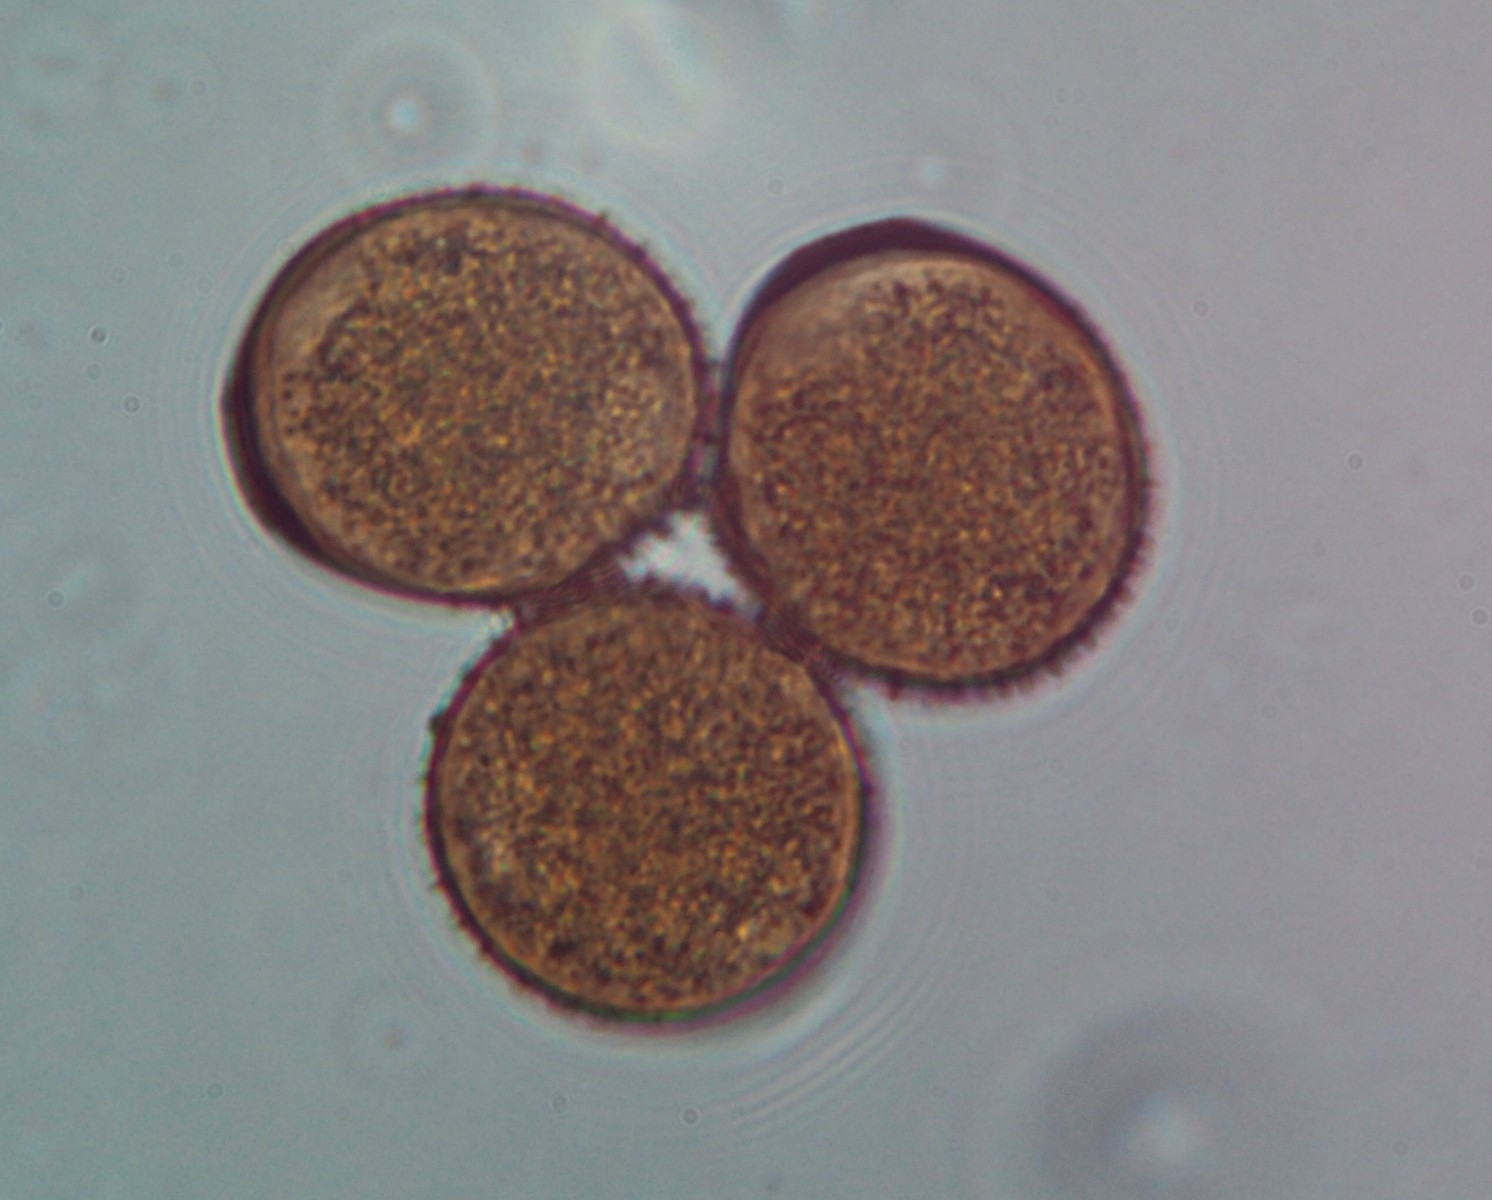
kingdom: Fungi
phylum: Basidiomycota
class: Pucciniomycetes
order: Pucciniales
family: Pucciniaceae
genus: Puccinia
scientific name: Puccinia suaveolens
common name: tidsel-tvecellerust
